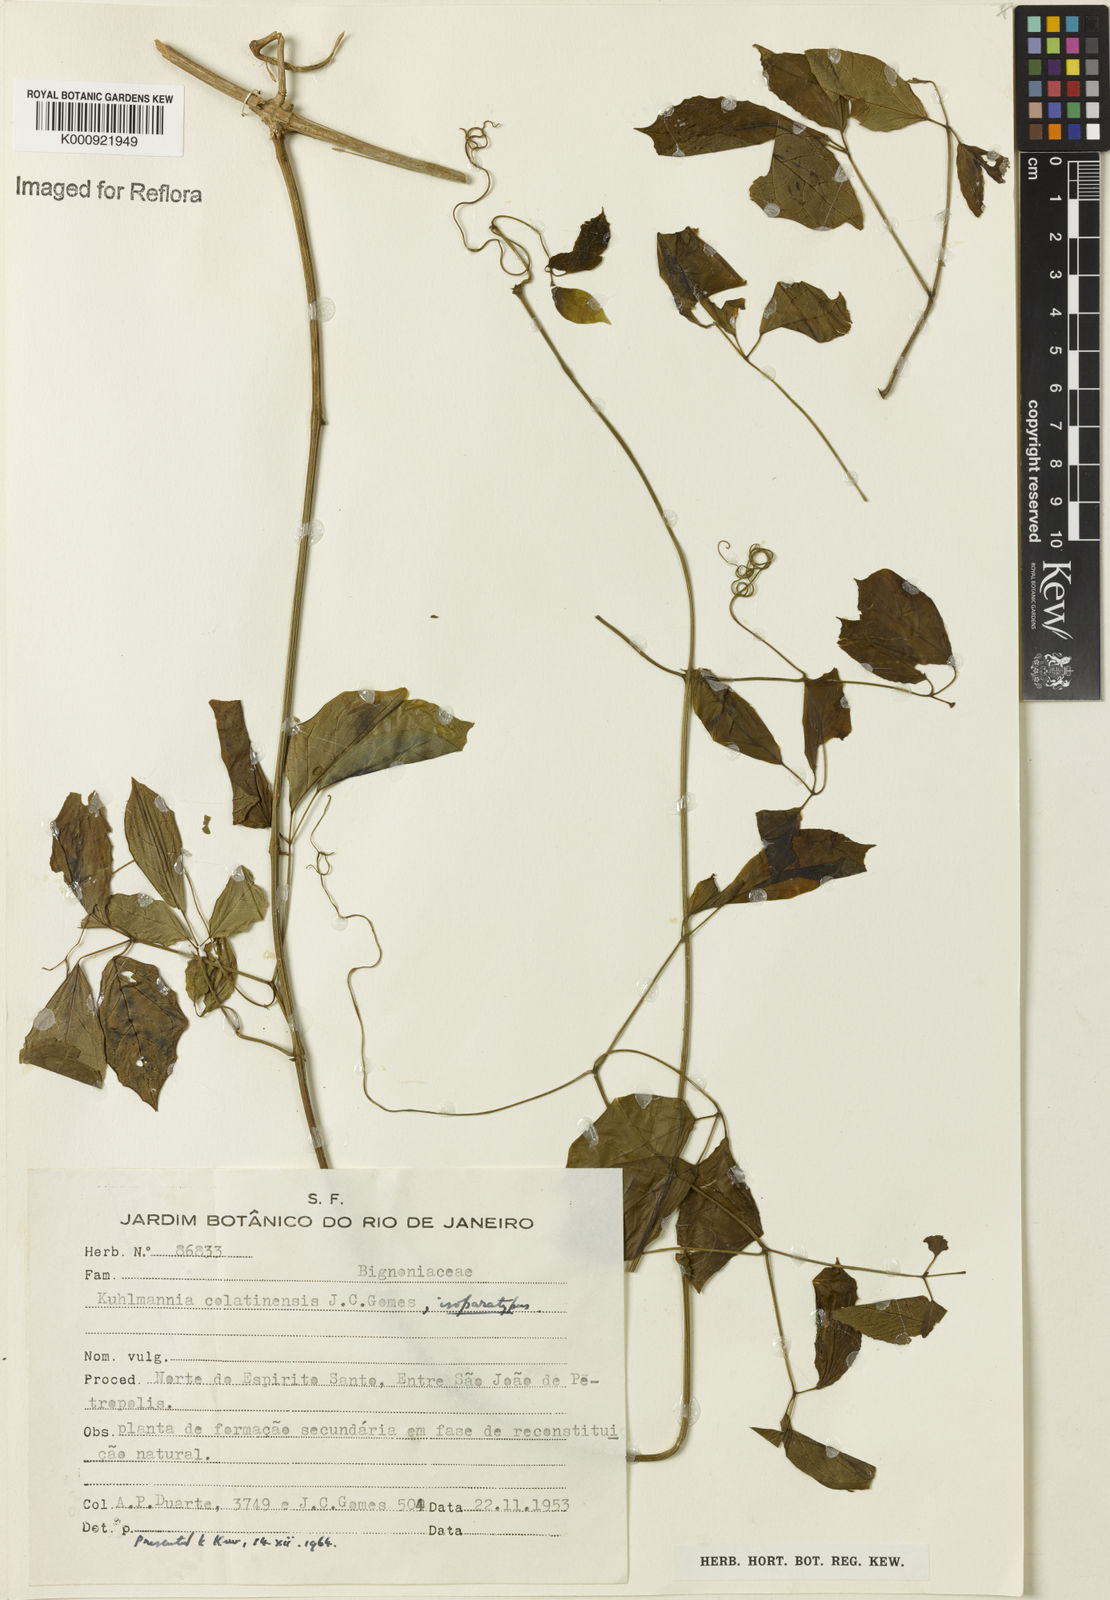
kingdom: Plantae
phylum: Tracheophyta
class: Magnoliopsida
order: Lamiales
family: Bignoniaceae
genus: Adenocalymma
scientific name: Adenocalymma albiflorum
